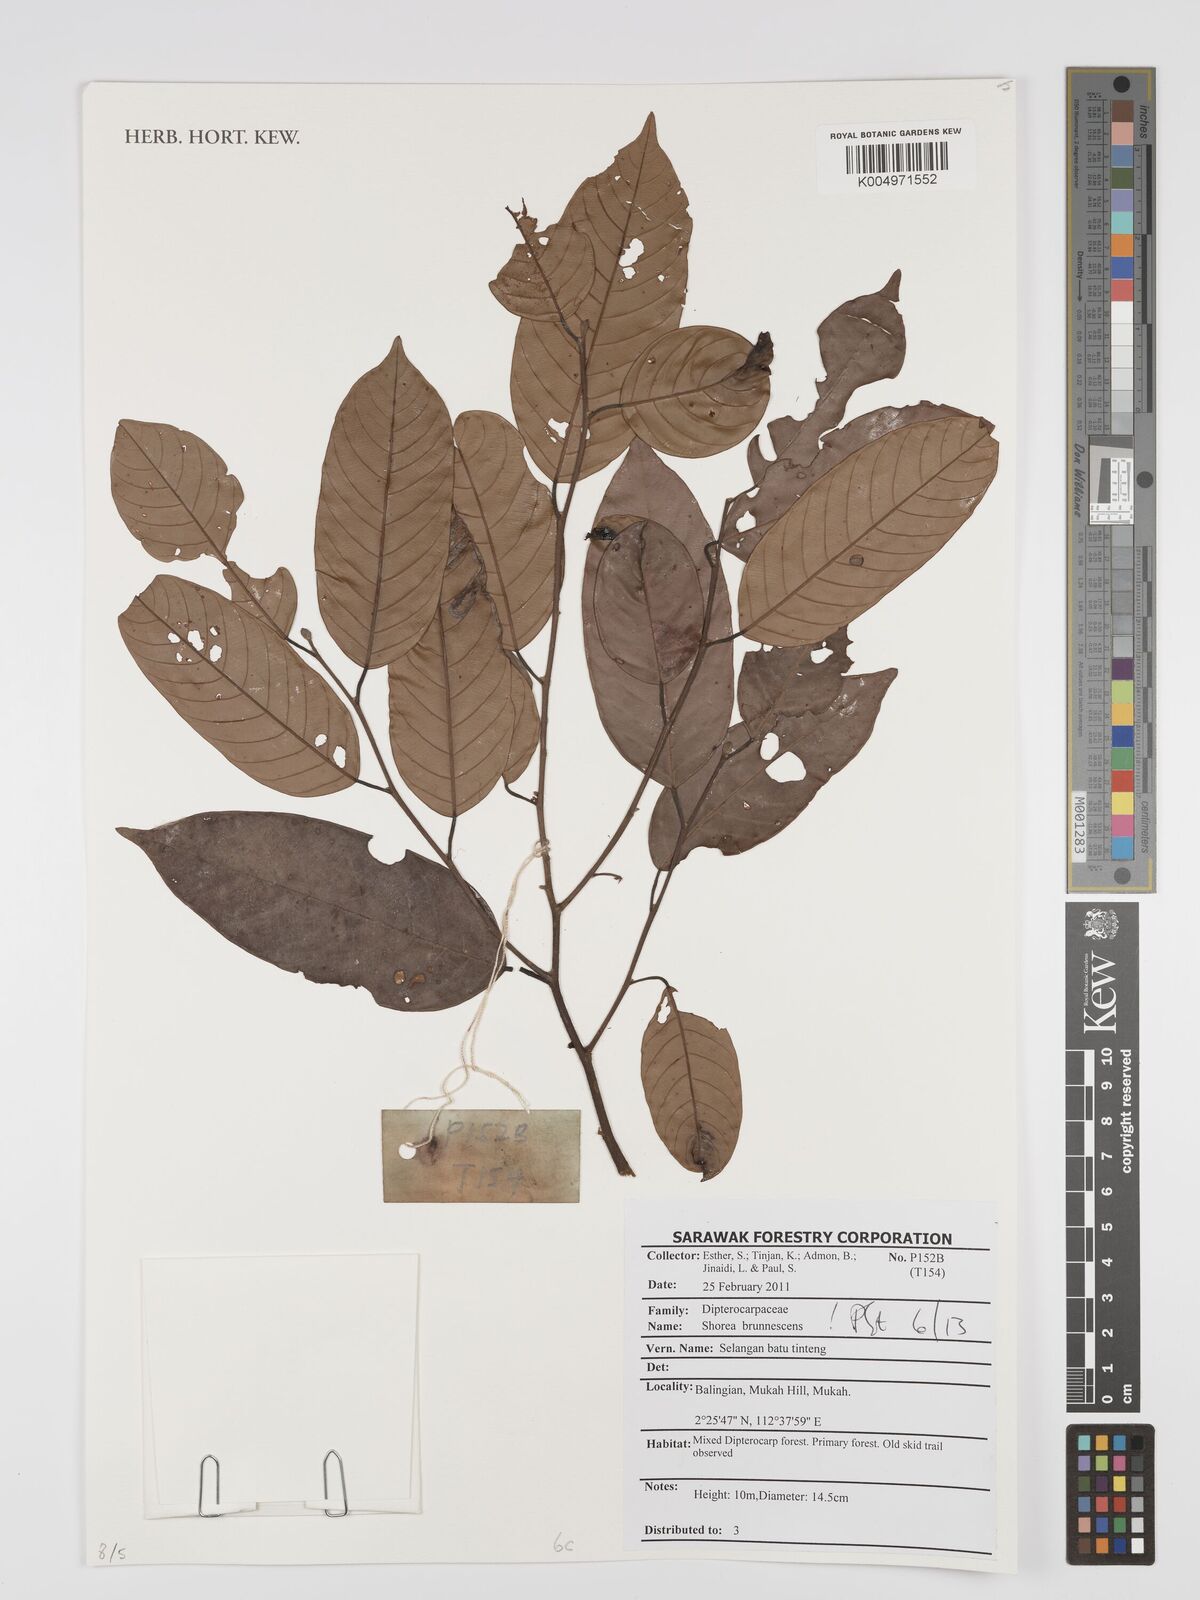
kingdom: Plantae
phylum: Tracheophyta
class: Magnoliopsida
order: Malvales
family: Dipterocarpaceae
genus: Shorea
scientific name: Shorea brunnescens
